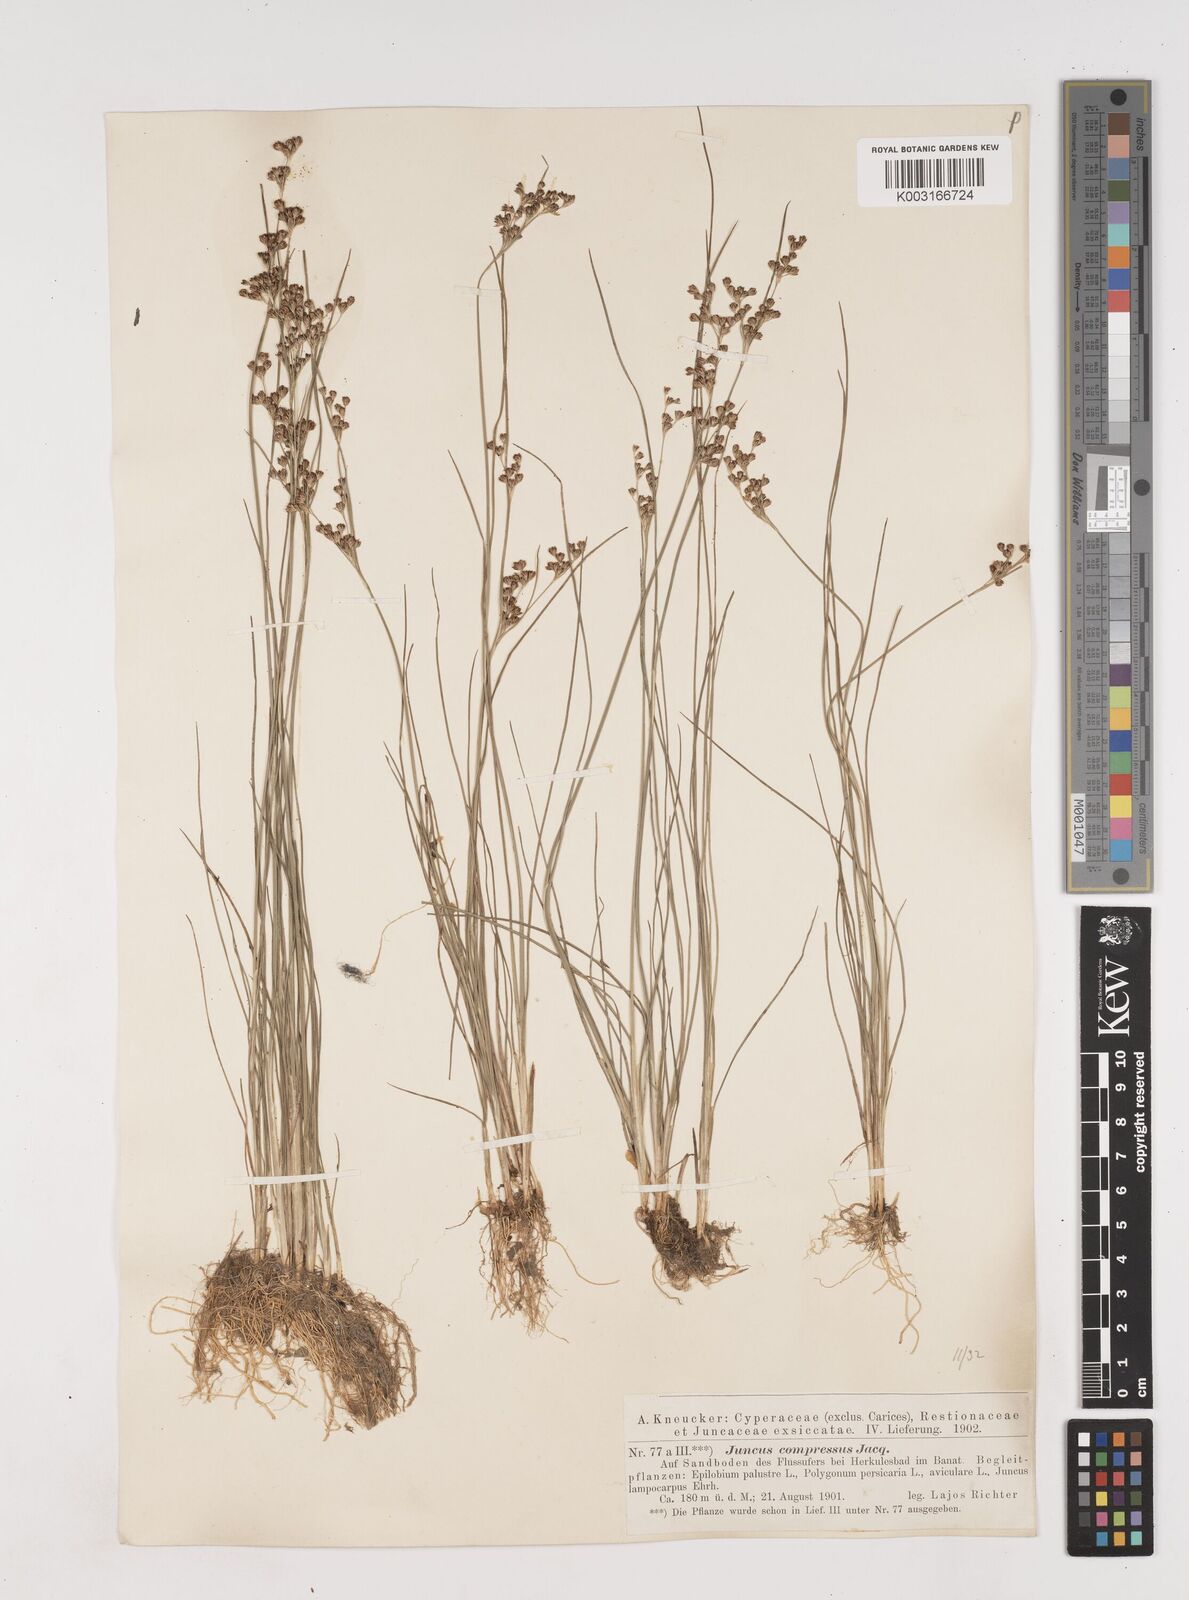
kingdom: Plantae
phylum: Tracheophyta
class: Liliopsida
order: Poales
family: Juncaceae
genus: Juncus
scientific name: Juncus
